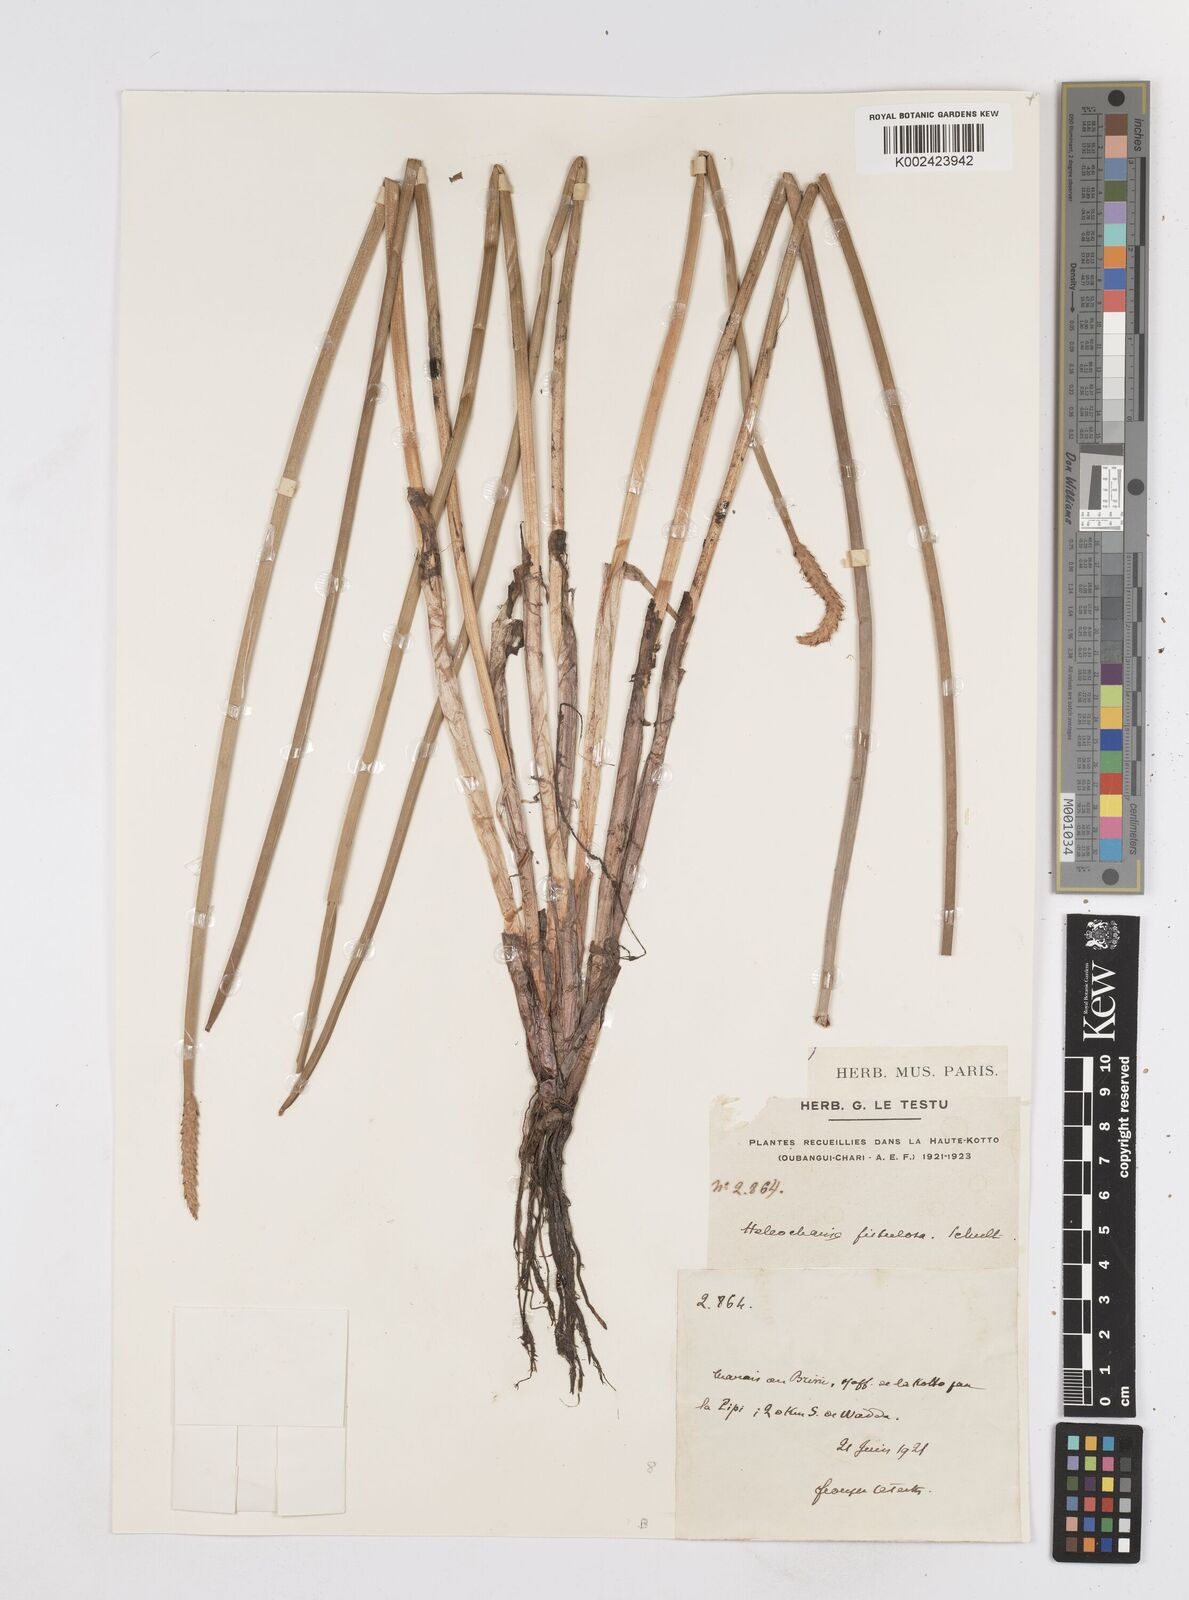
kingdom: Plantae
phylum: Tracheophyta
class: Liliopsida
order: Poales
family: Cyperaceae
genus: Eleocharis
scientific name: Eleocharis acutangula
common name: Acute spikerush
